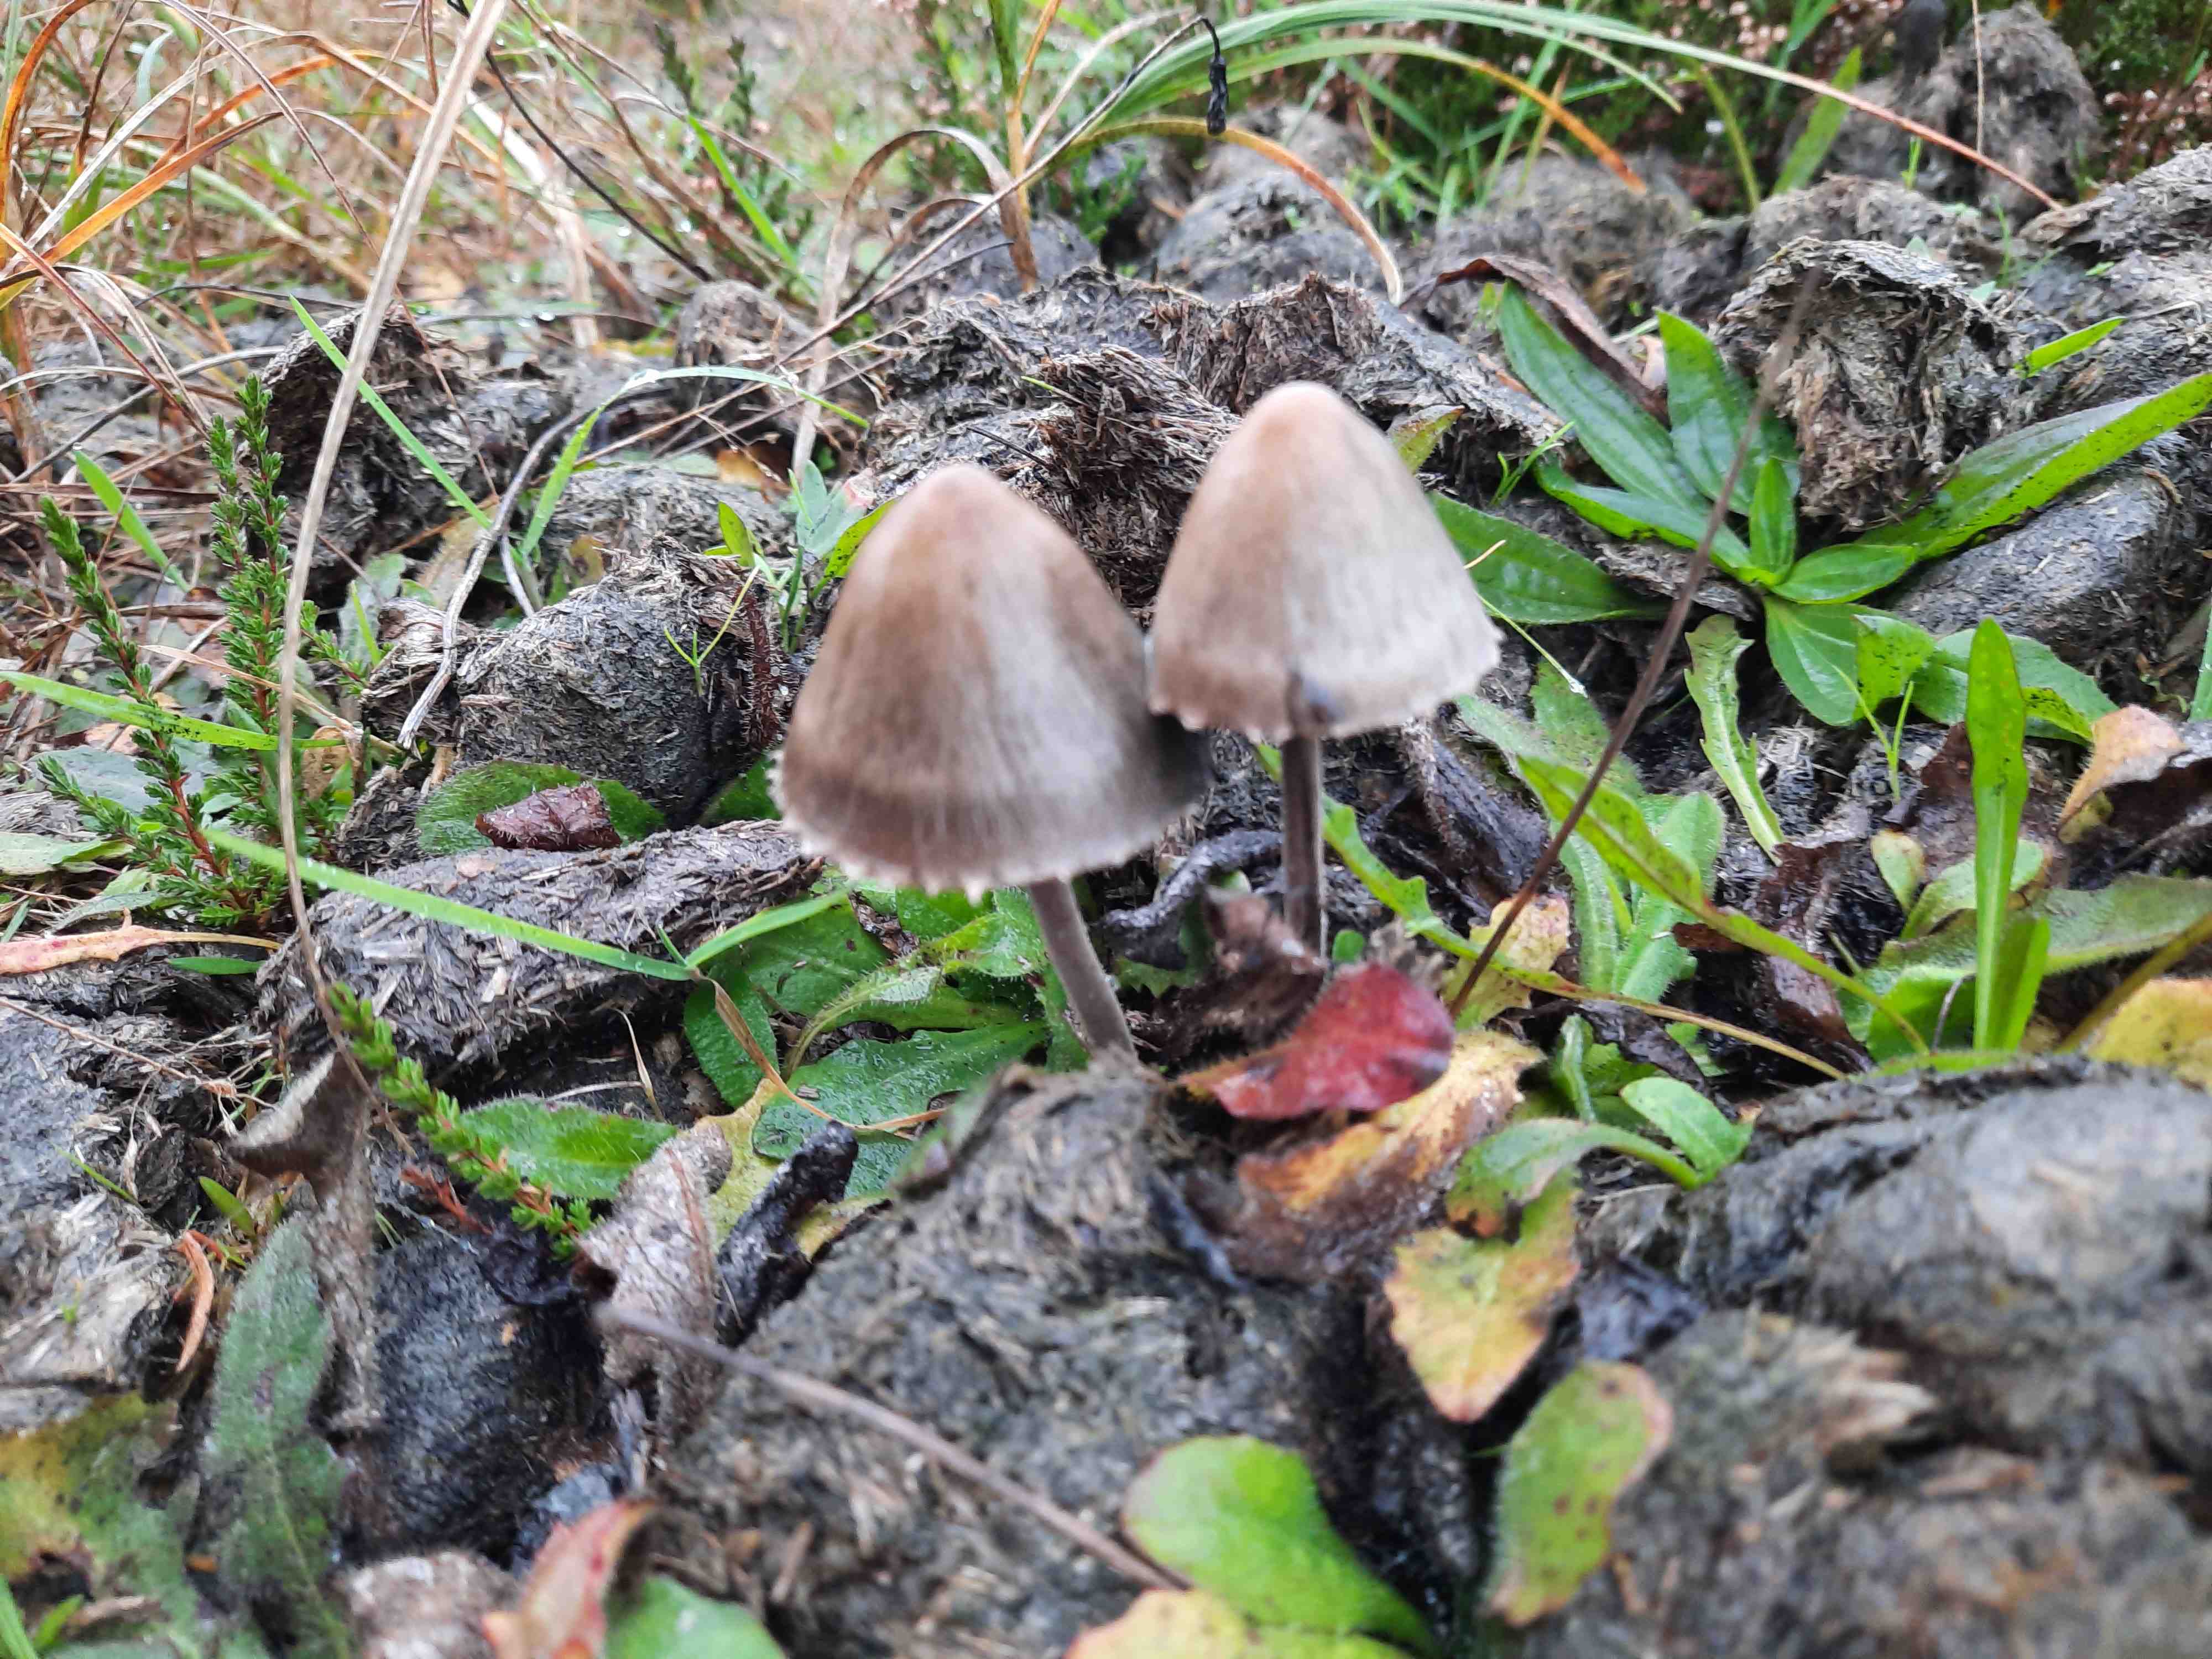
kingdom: Fungi
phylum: Basidiomycota
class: Agaricomycetes
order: Agaricales
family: Bolbitiaceae
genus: Panaeolus
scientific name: Panaeolus papilionaceus
